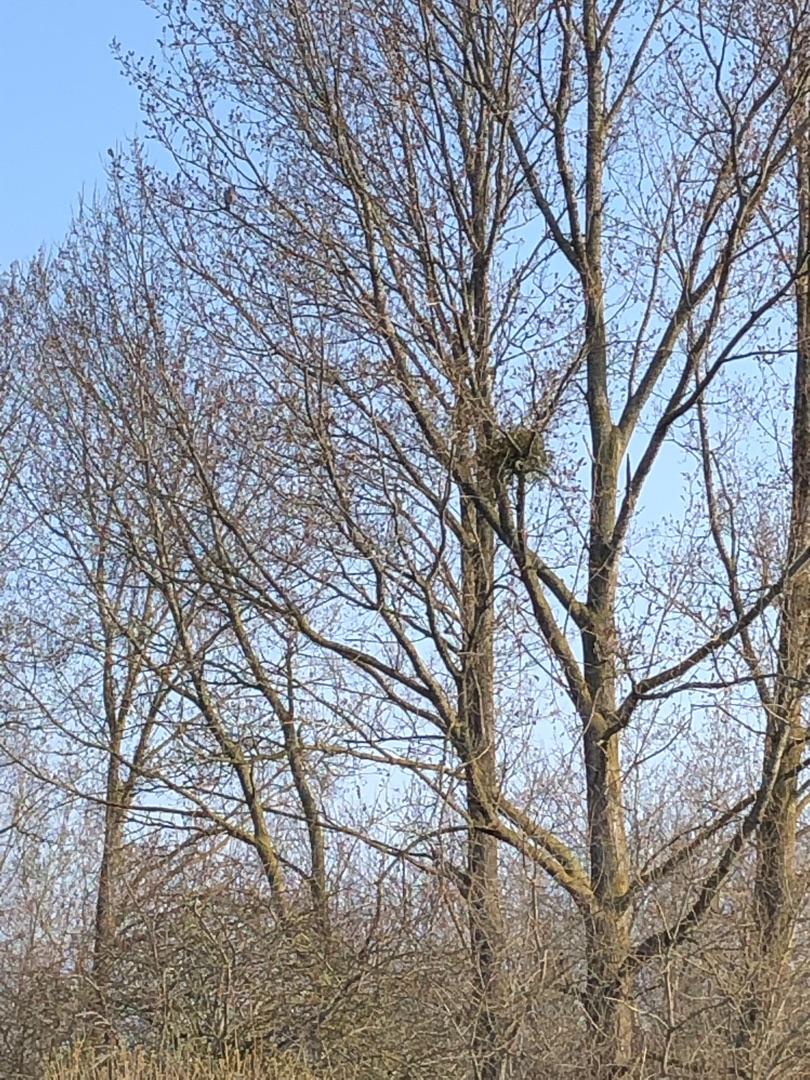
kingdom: Plantae
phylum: Tracheophyta
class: Magnoliopsida
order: Santalales
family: Viscaceae
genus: Viscum
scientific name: Viscum album
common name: Mistelten
